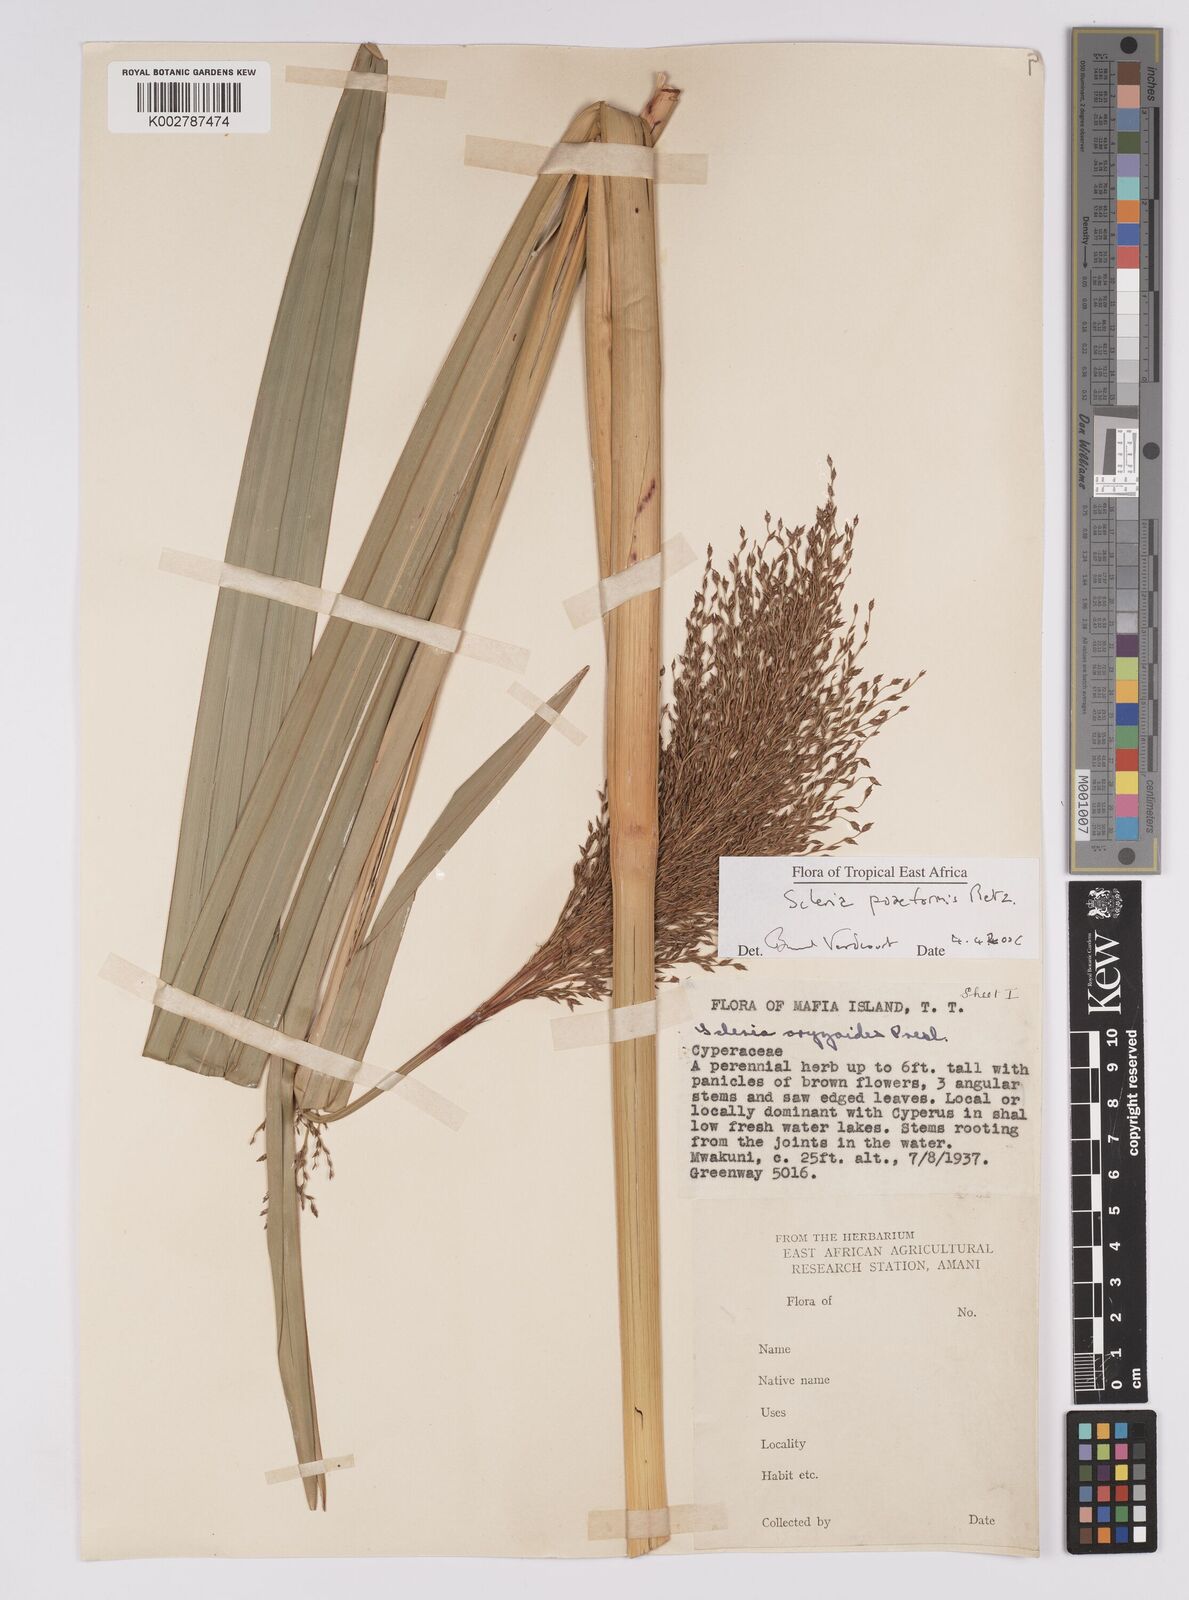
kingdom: Plantae
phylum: Tracheophyta
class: Liliopsida
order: Poales
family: Cyperaceae
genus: Scleria
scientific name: Scleria poiformis
